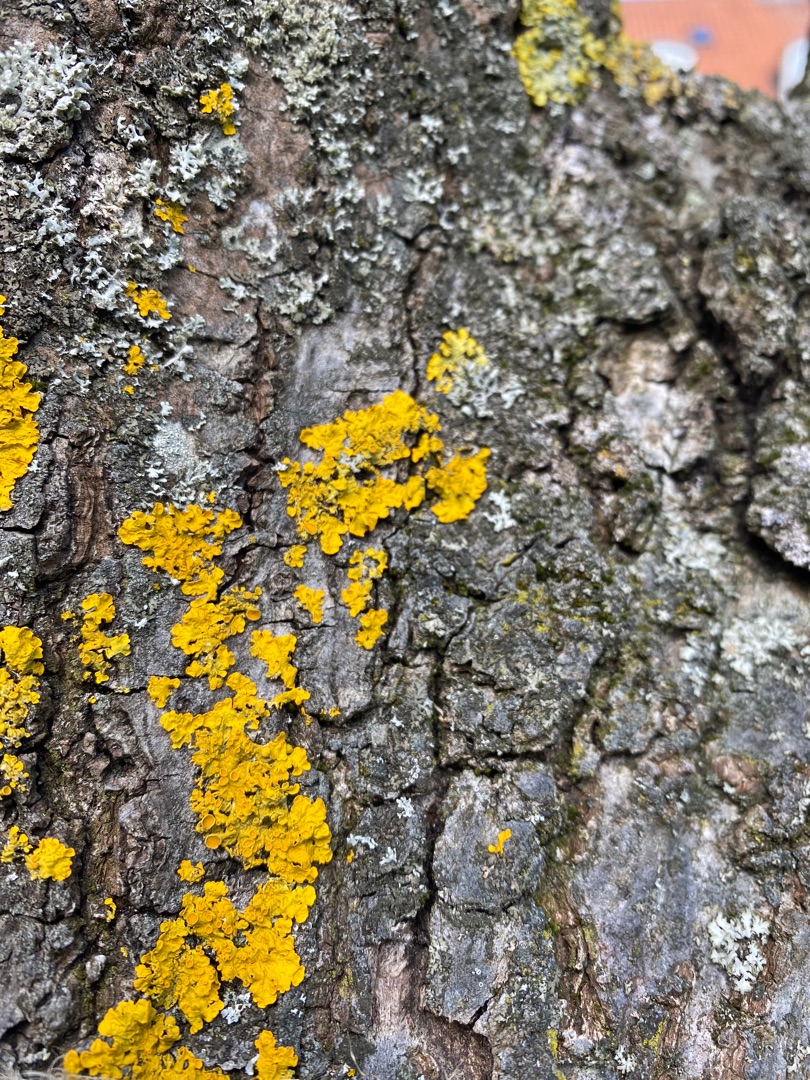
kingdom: Fungi
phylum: Ascomycota
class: Lecanoromycetes
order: Teloschistales
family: Teloschistaceae
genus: Xanthoria
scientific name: Xanthoria parietina
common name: Almindelig væggelav
